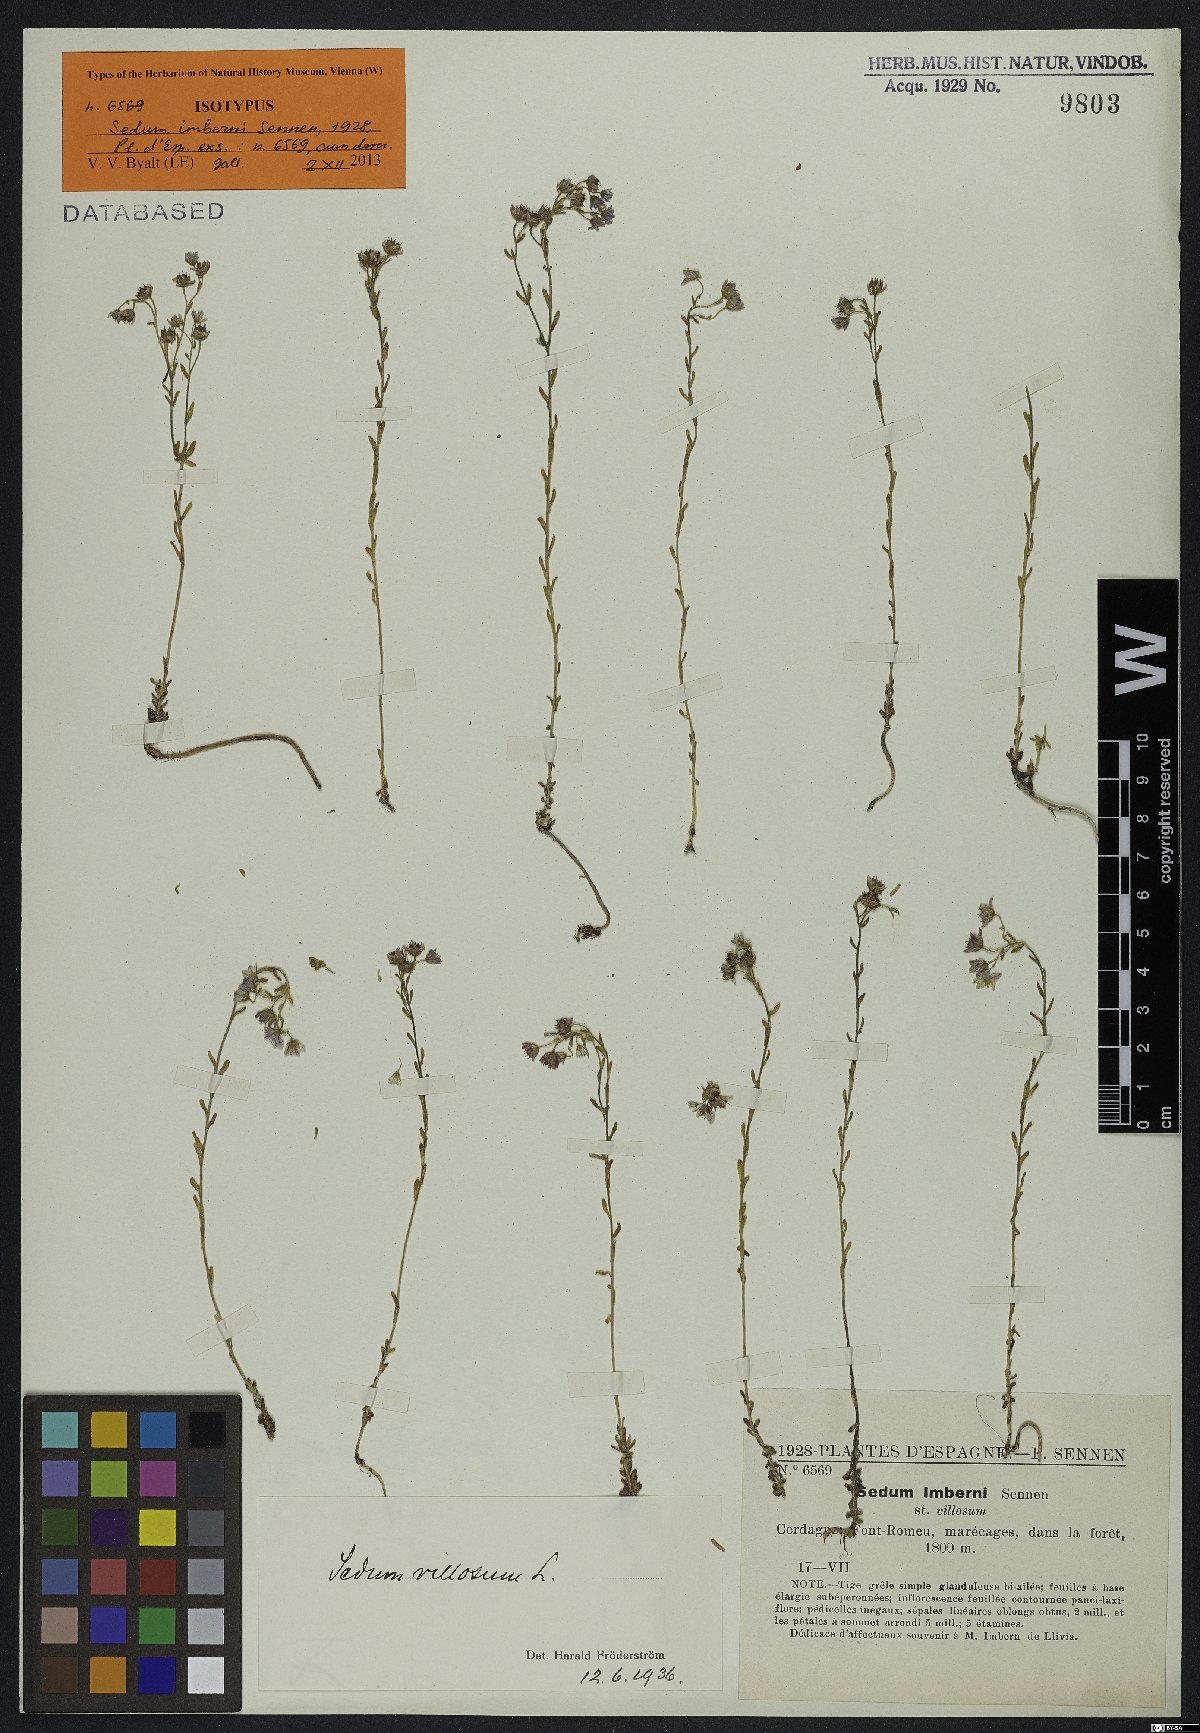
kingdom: Plantae
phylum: Tracheophyta
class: Magnoliopsida
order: Saxifragales
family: Crassulaceae
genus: Sedum
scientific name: Sedum
